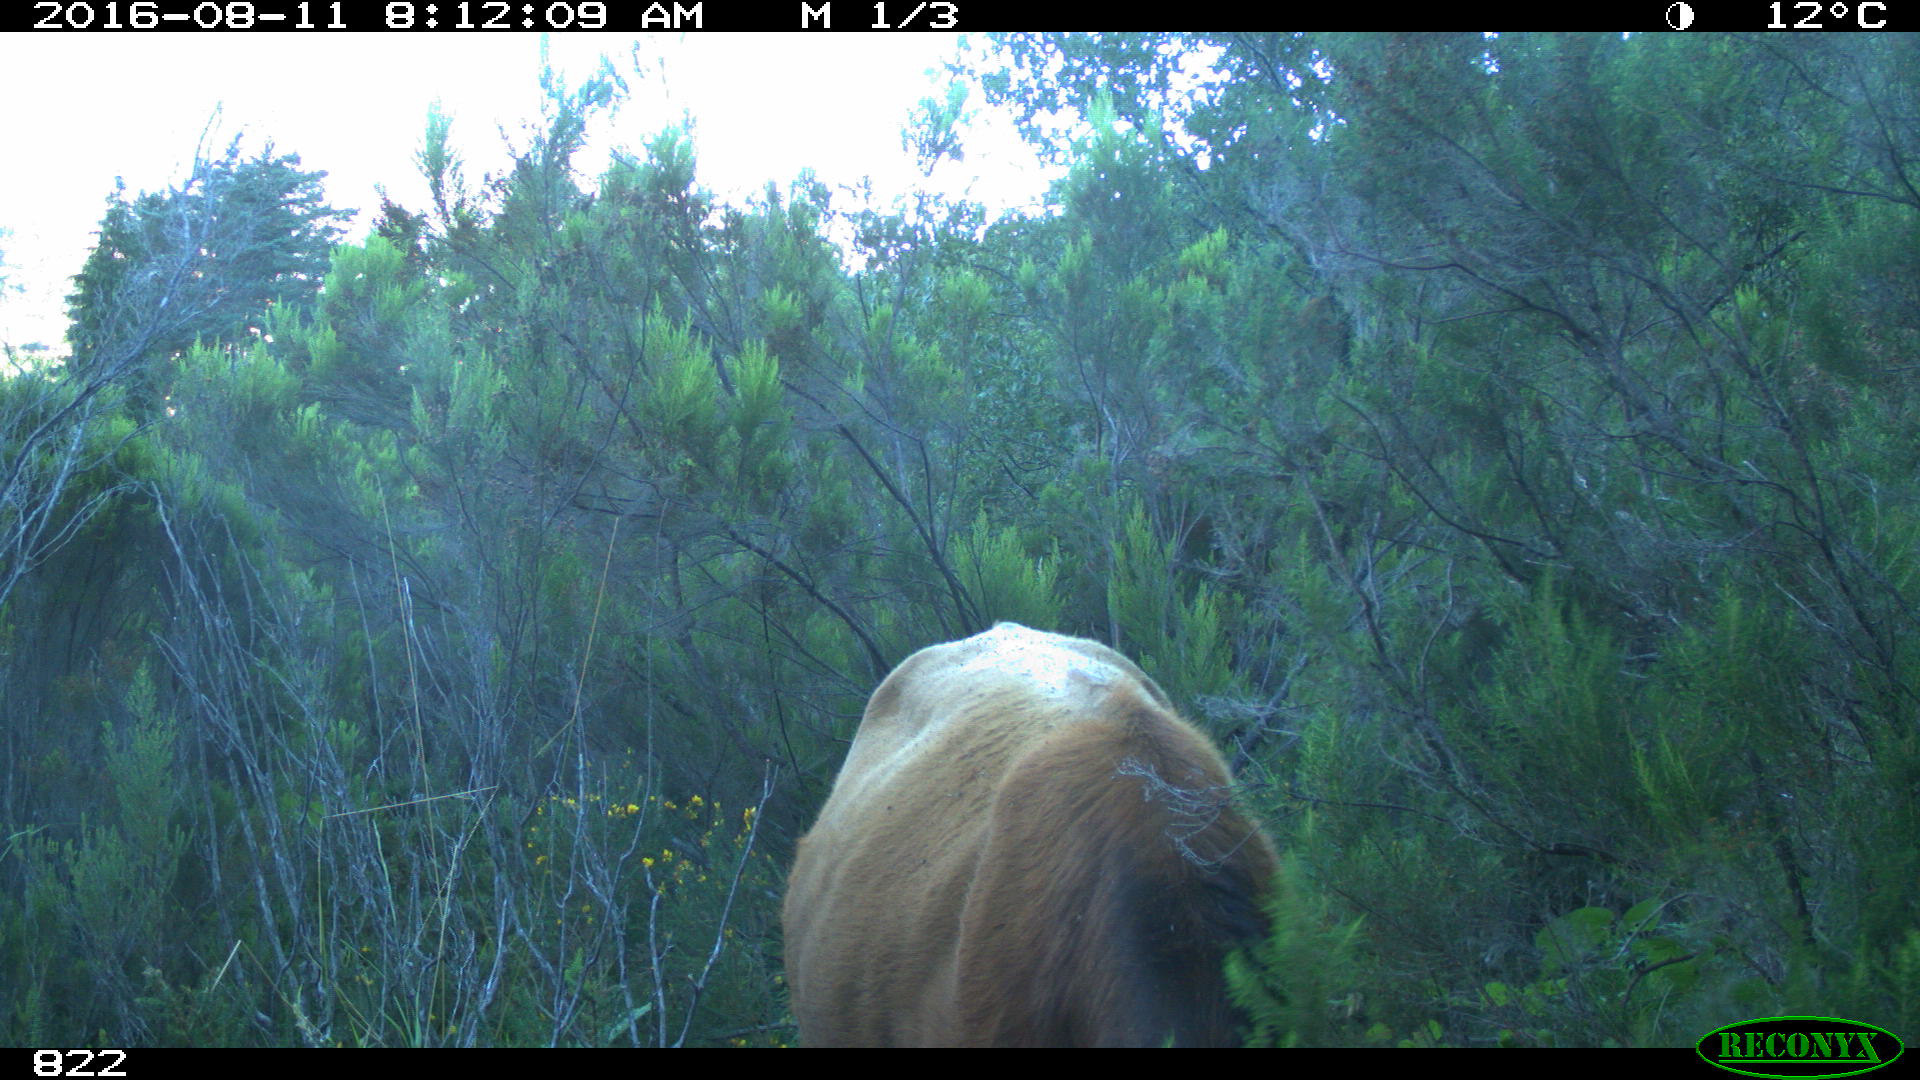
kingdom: Animalia
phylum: Chordata
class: Mammalia
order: Artiodactyla
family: Bovidae
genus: Bos
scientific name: Bos taurus
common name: Domesticated cattle
